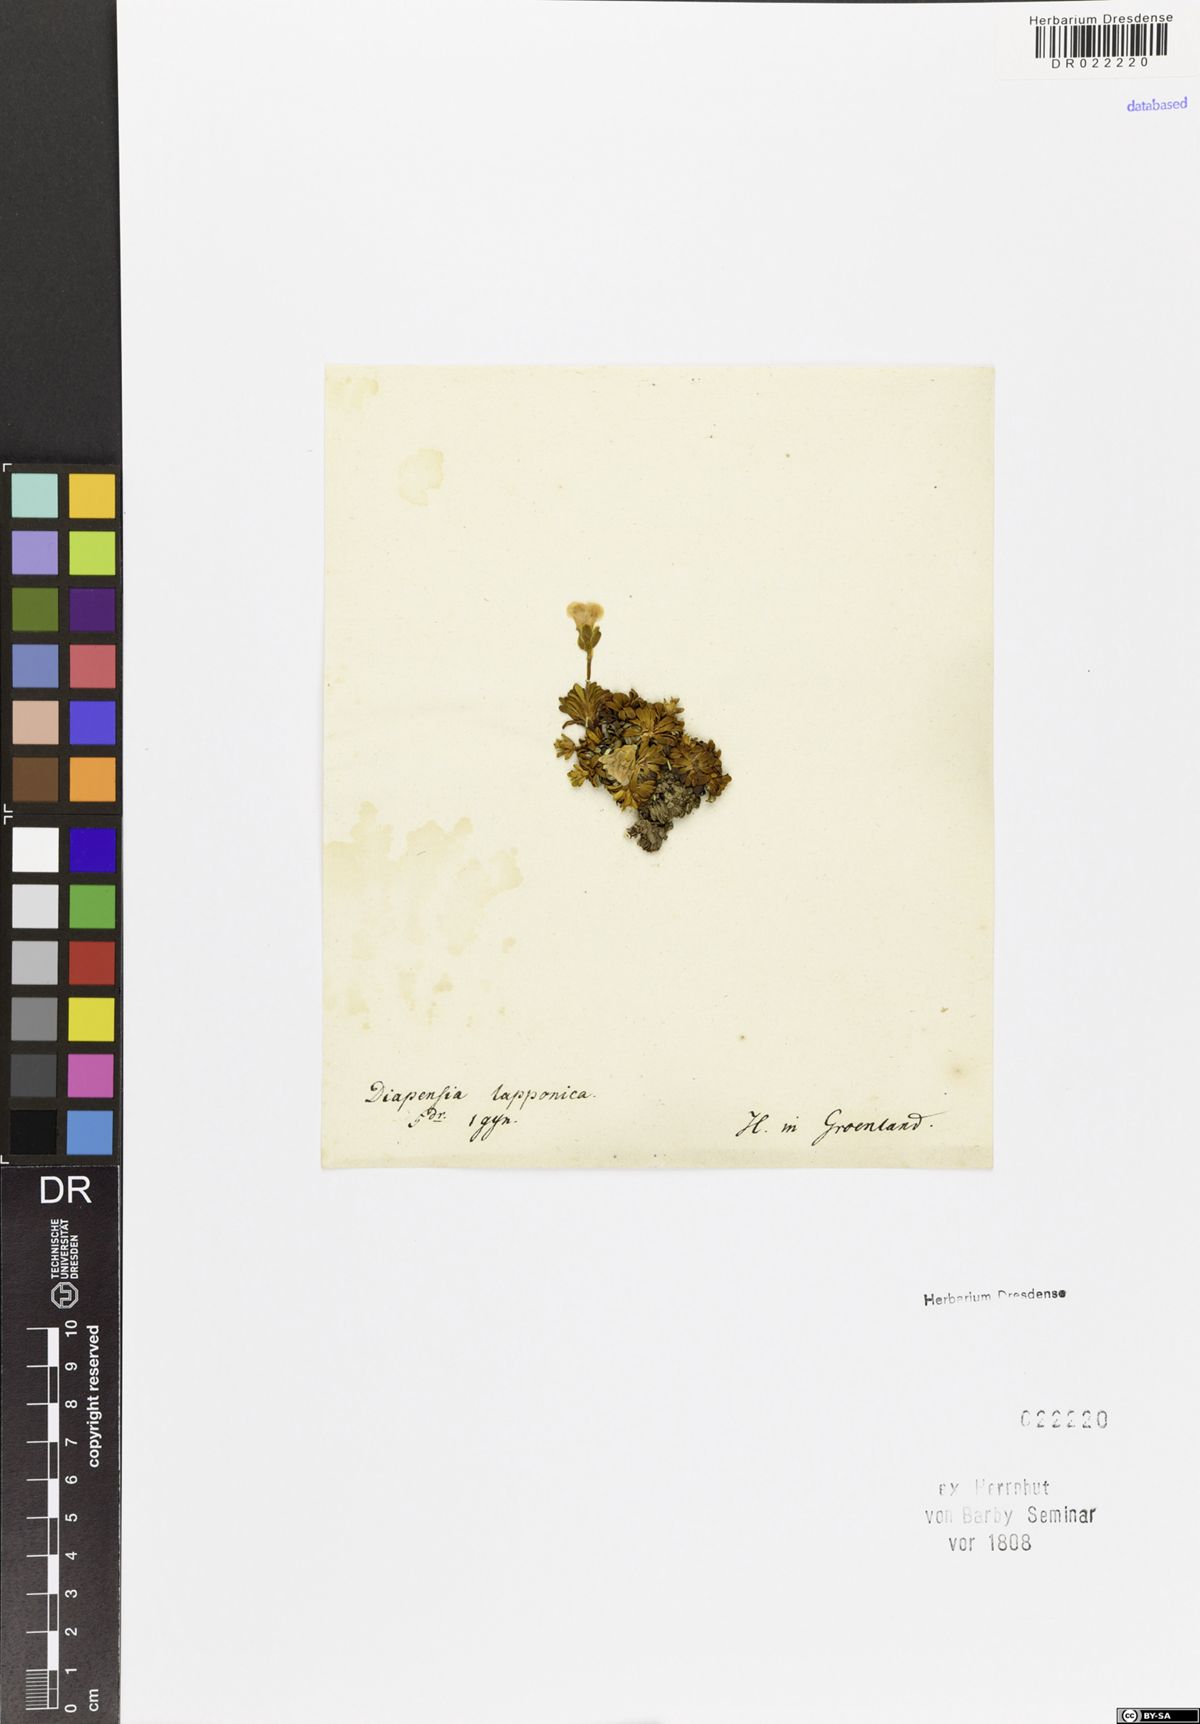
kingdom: Plantae
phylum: Tracheophyta
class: Magnoliopsida
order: Ericales
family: Diapensiaceae
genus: Diapensia
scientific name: Diapensia lapponica
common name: Diapensia
